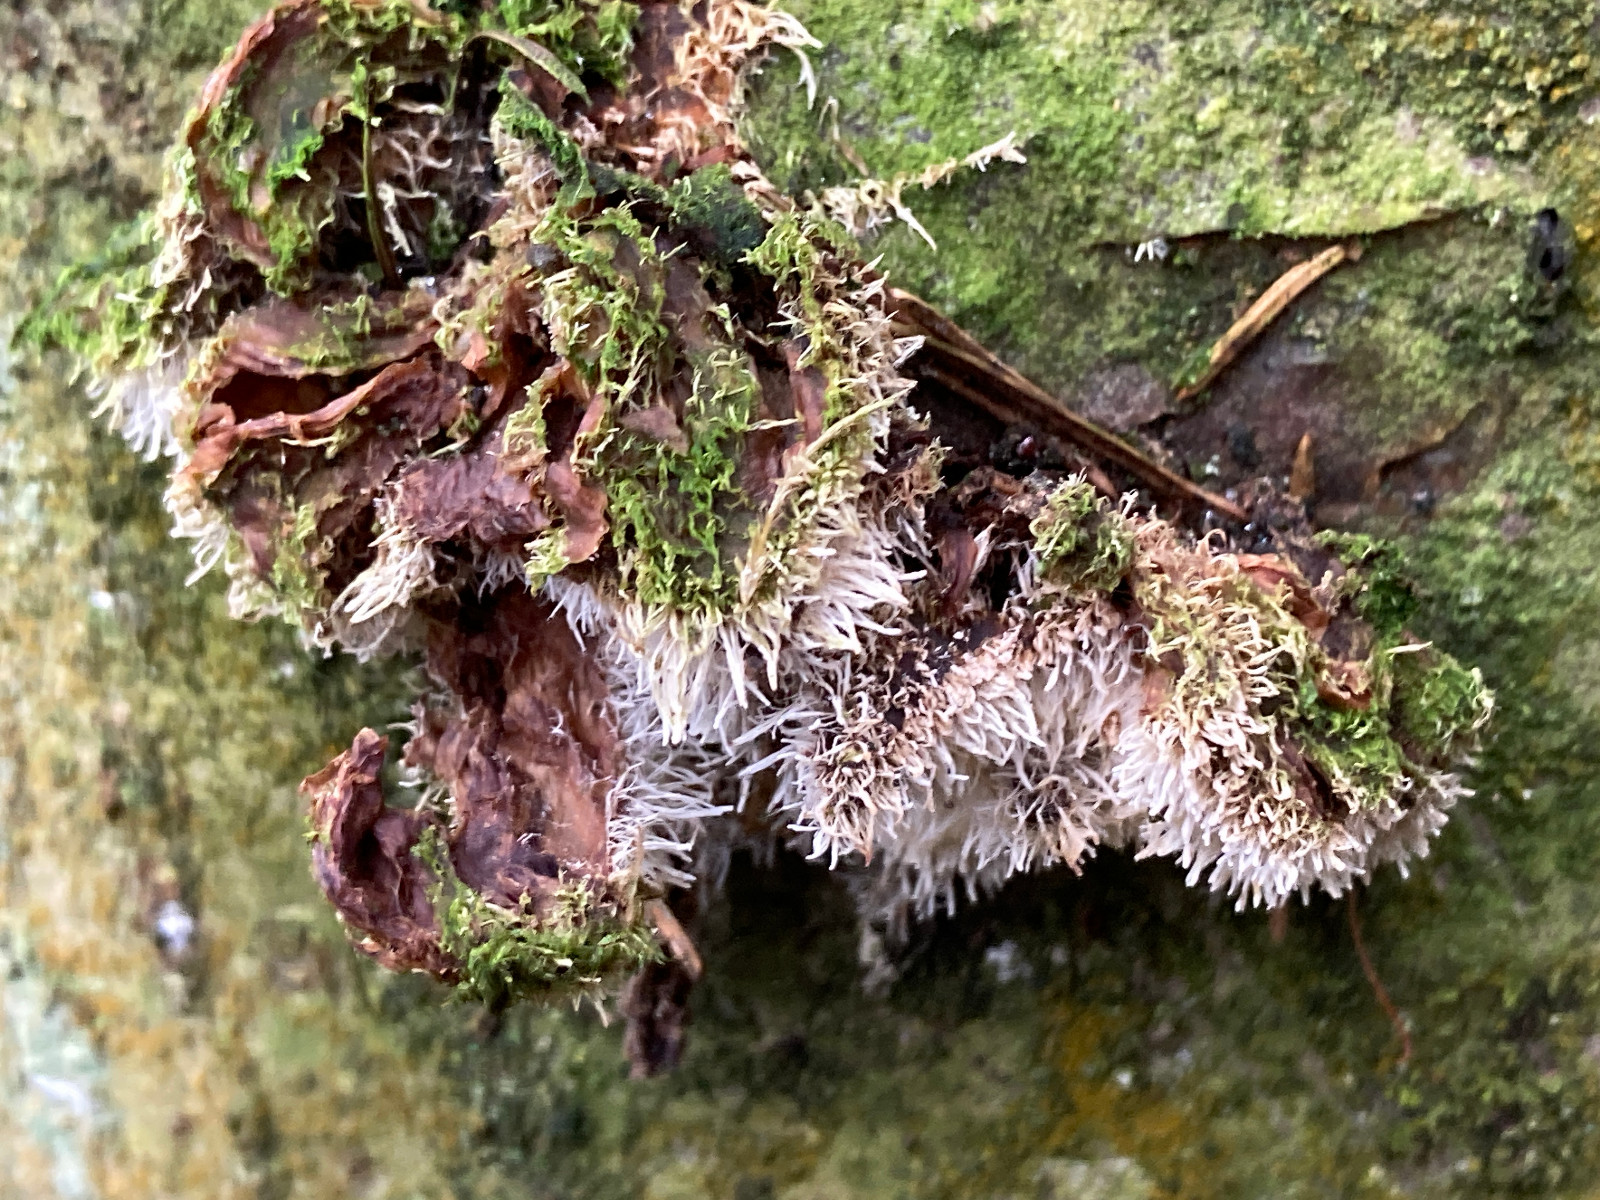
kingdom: Fungi
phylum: Ascomycota
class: Sordariomycetes
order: Hypocreales
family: Tilachlidiaceae
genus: Tilachlidium
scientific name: Tilachlidium brachiatum
